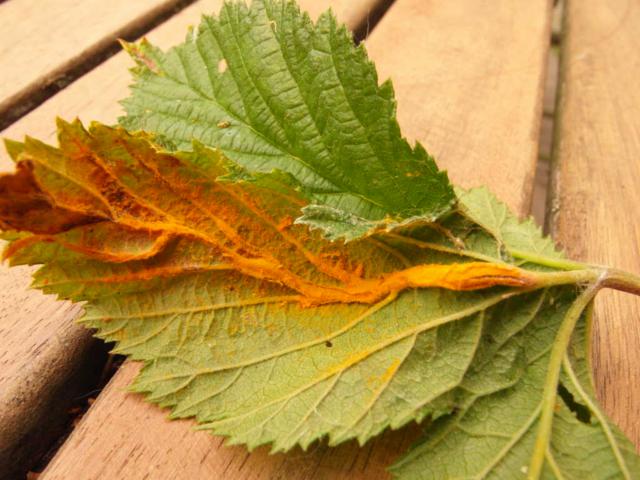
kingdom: Fungi
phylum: Basidiomycota
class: Pucciniomycetes
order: Pucciniales
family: Raveneliaceae
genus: Triphragmium
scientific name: Triphragmium ulmariae
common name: almindelig mjødurtrust
